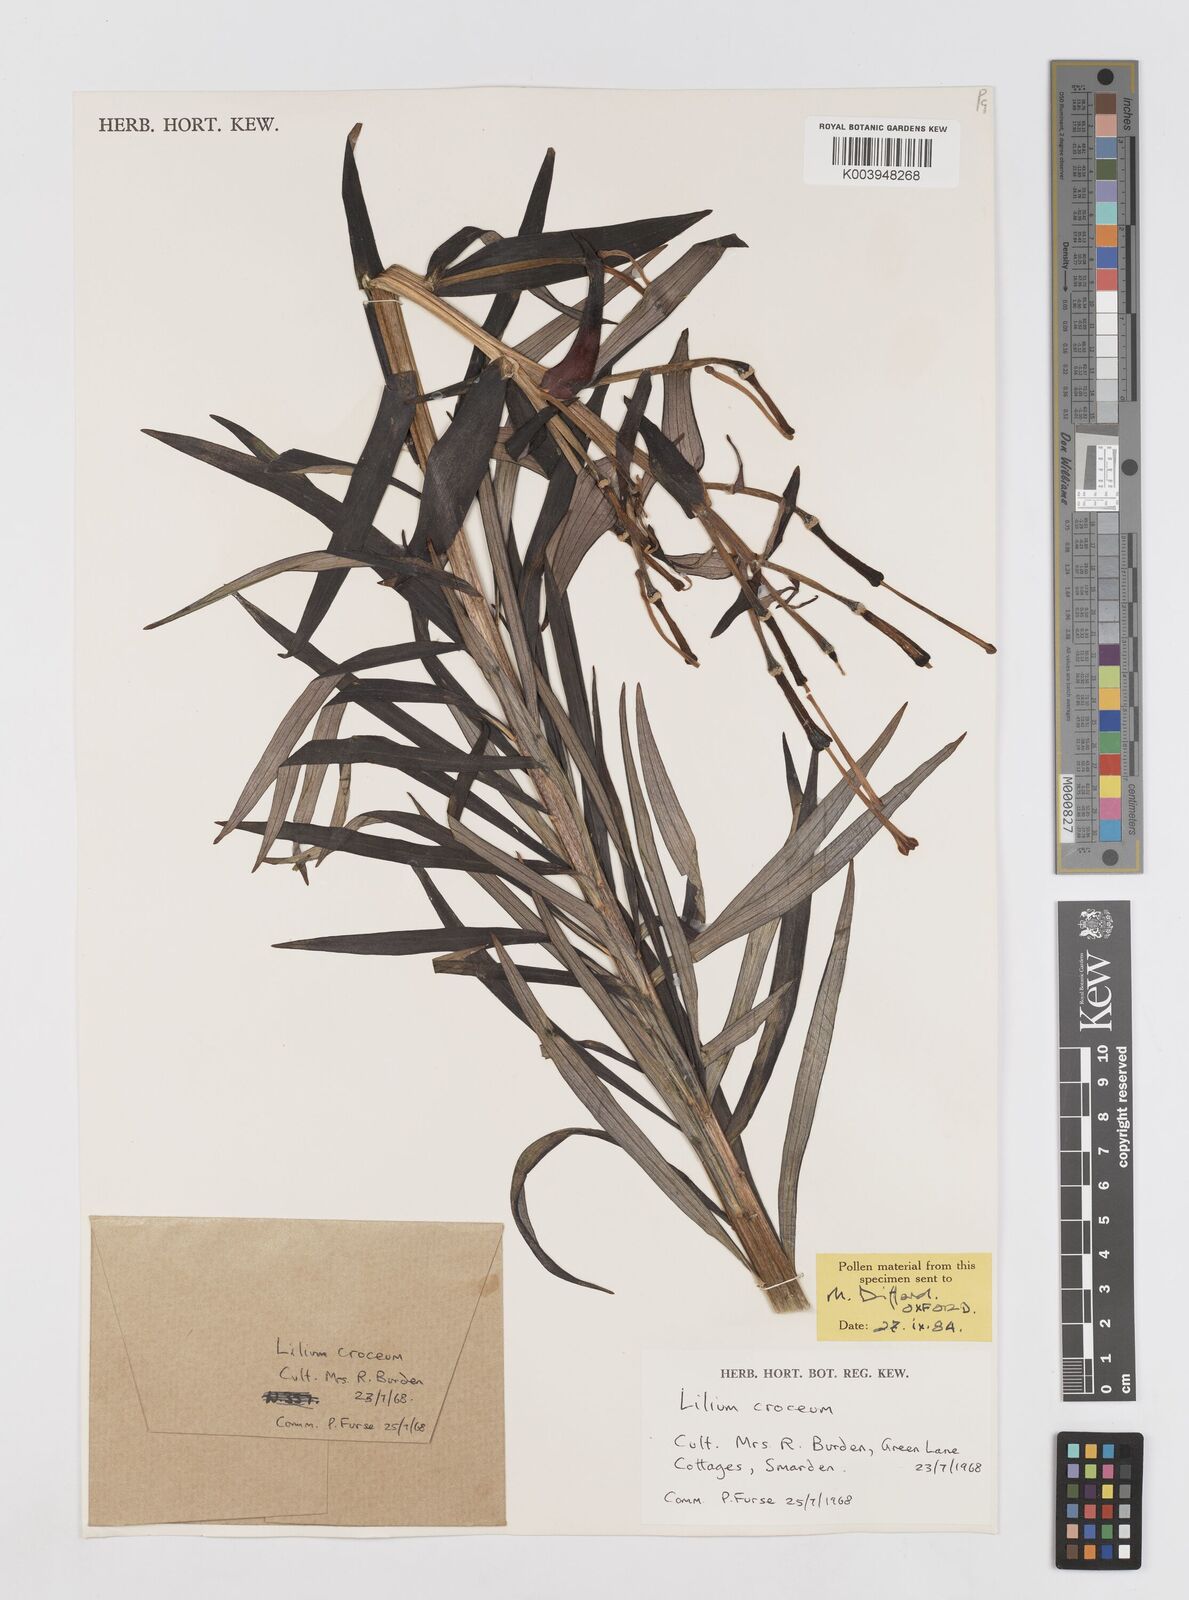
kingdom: Plantae
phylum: Tracheophyta
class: Liliopsida
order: Liliales
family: Liliaceae
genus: Lilium
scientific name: Lilium bulbiferum
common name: Orange lily
